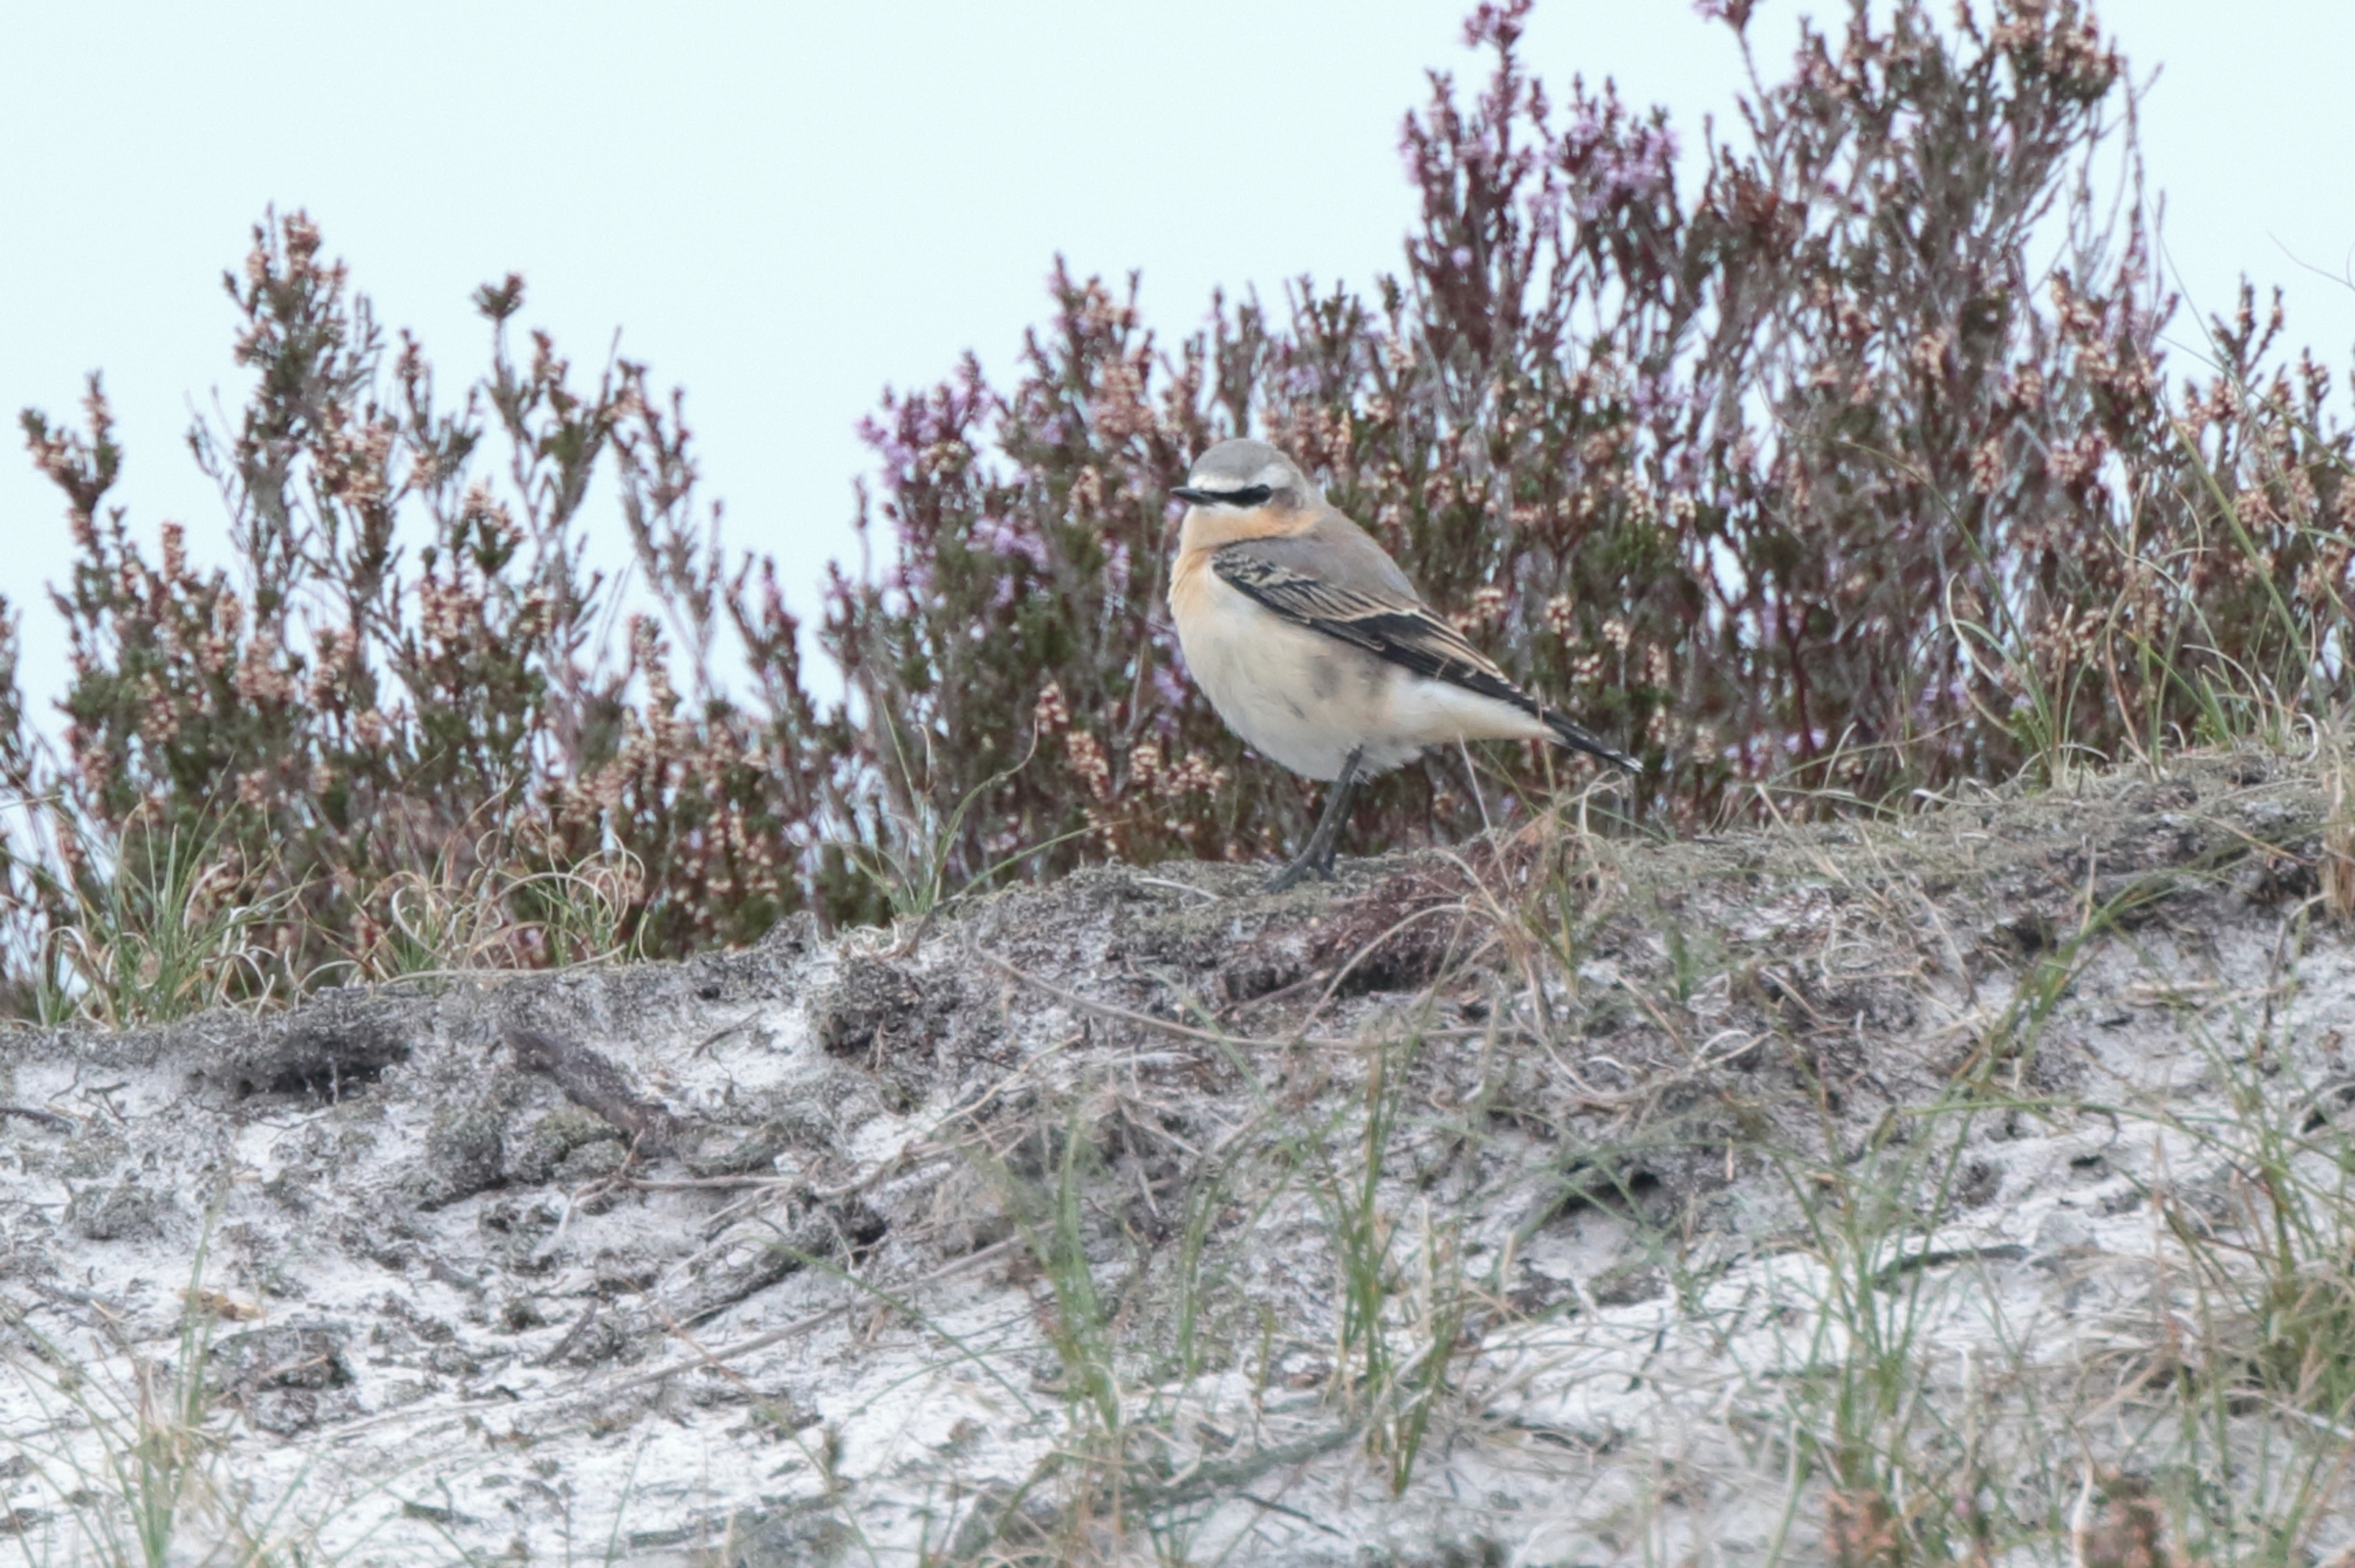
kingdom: Animalia
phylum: Chordata
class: Aves
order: Passeriformes
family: Muscicapidae
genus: Oenanthe
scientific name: Oenanthe oenanthe
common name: Stenpikker
